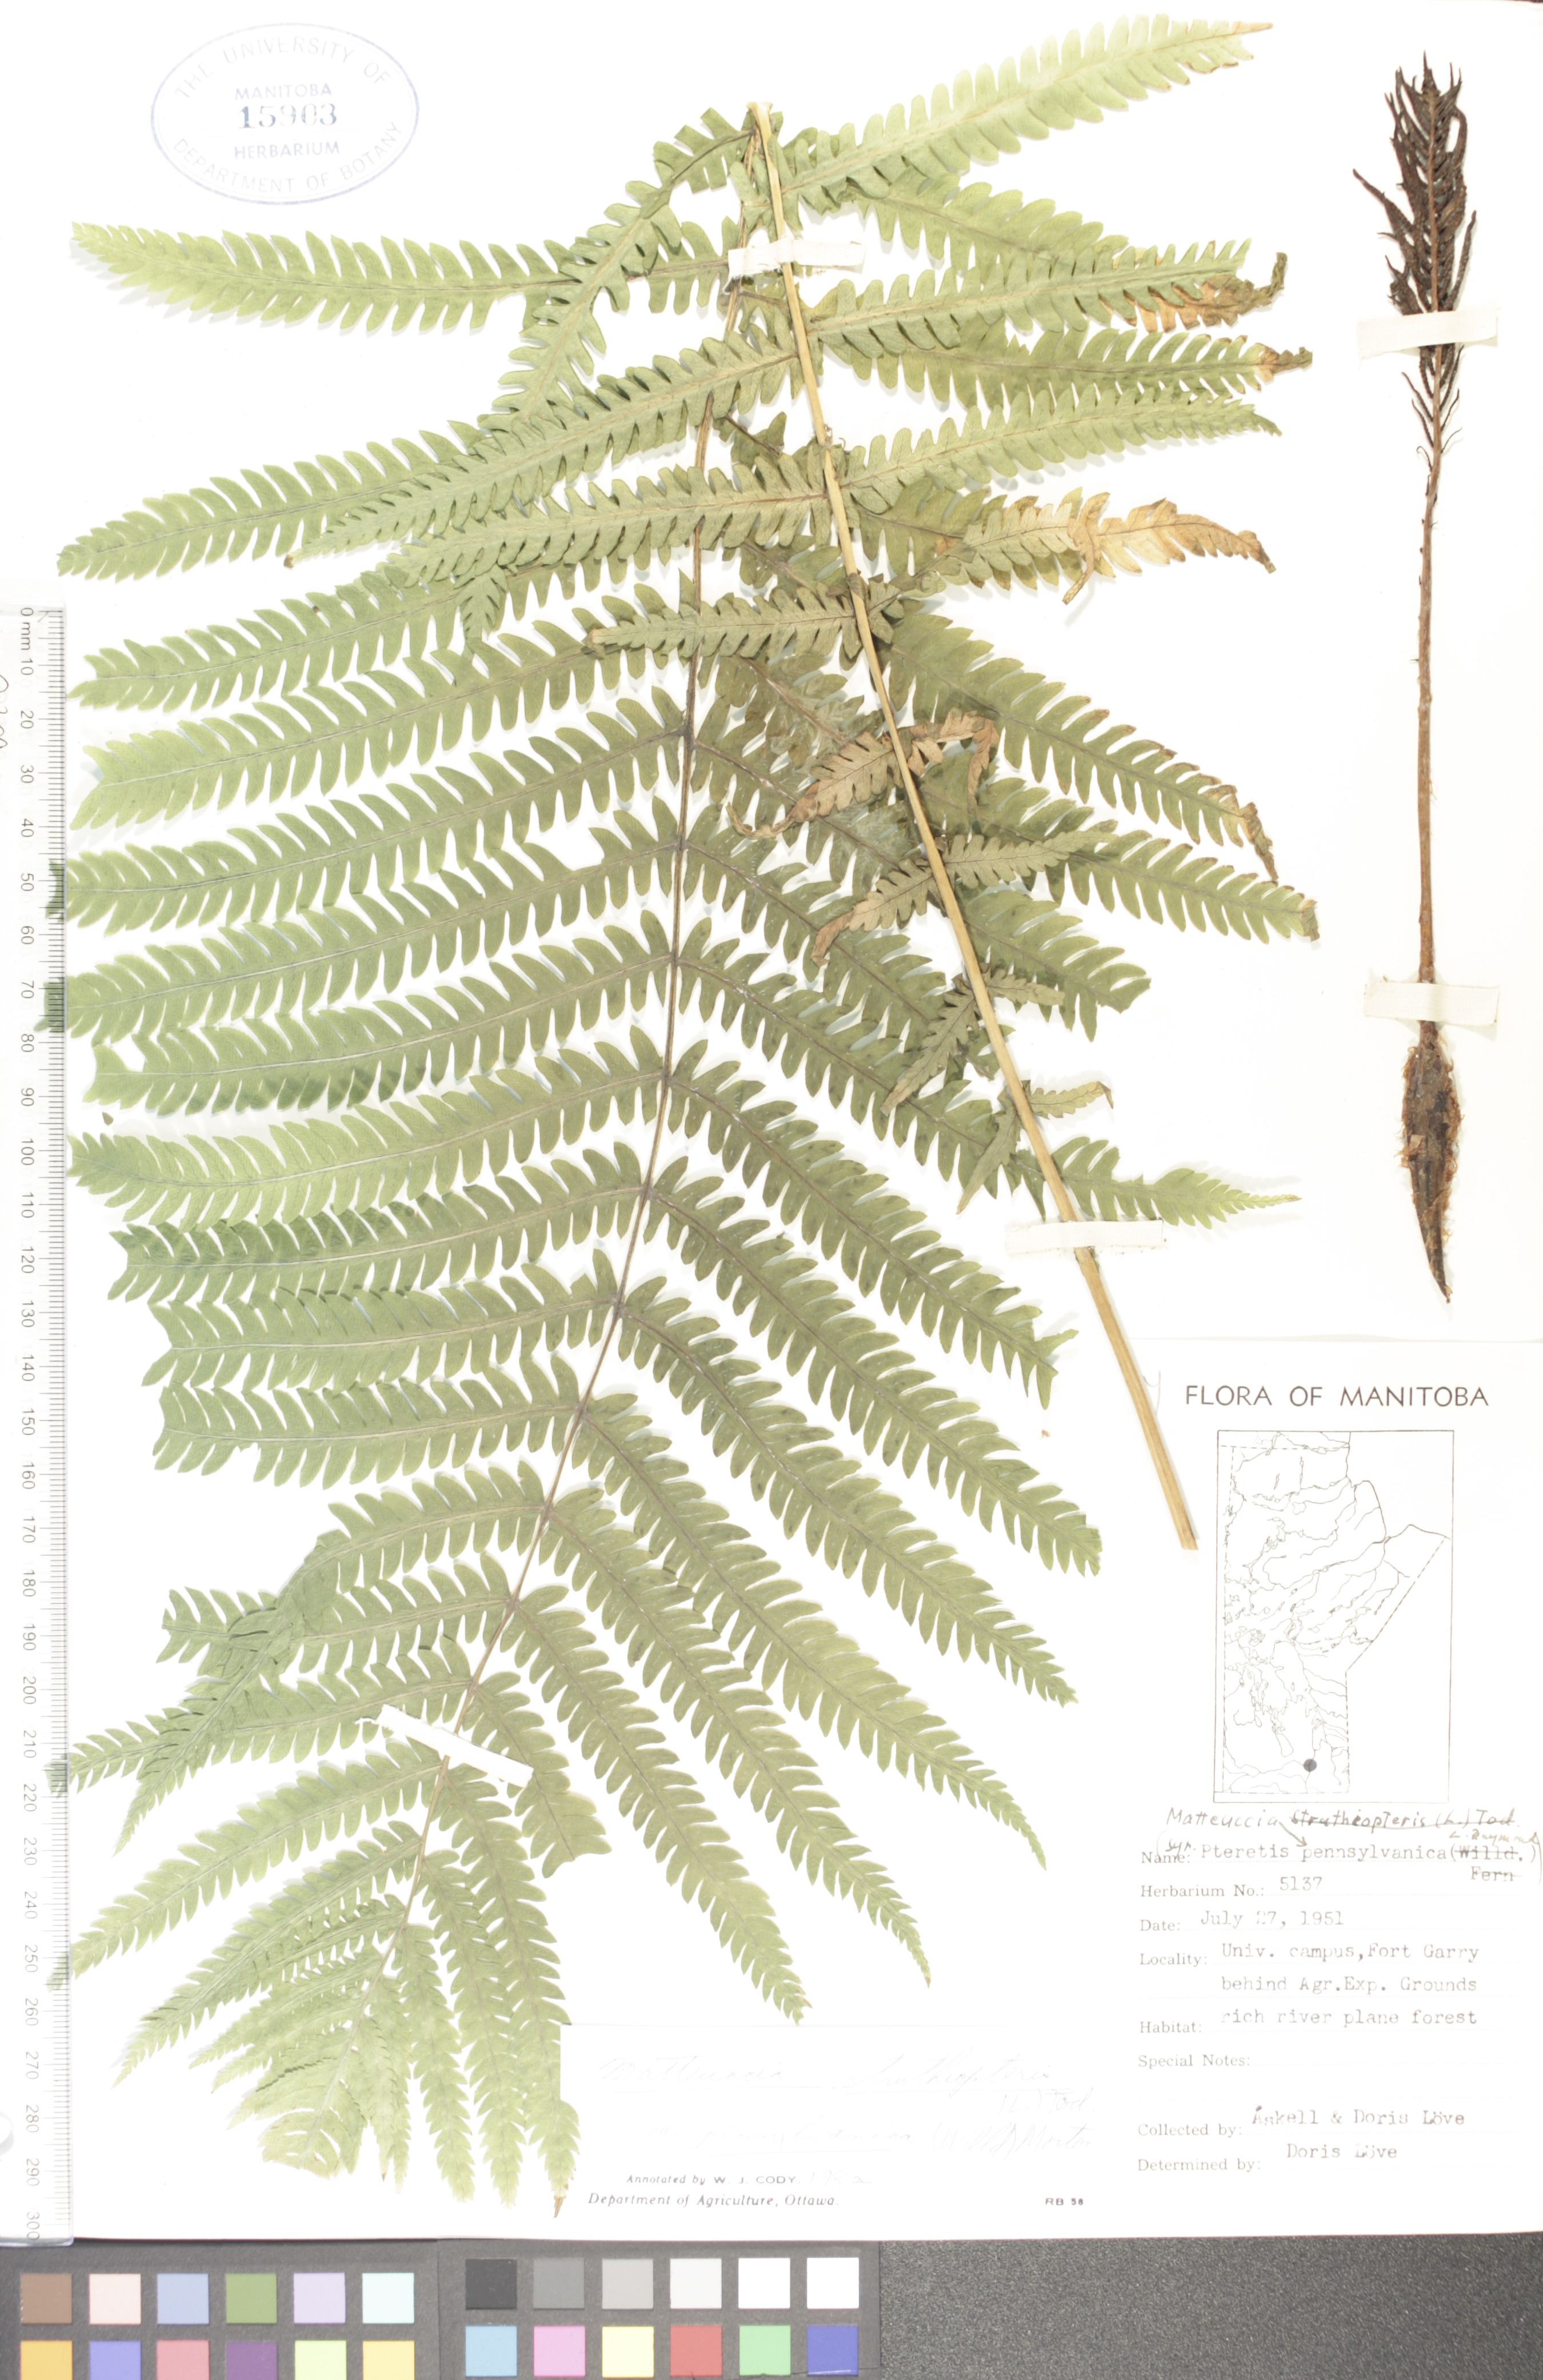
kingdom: Plantae
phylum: Tracheophyta
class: Polypodiopsida
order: Polypodiales
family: Onocleaceae
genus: Matteuccia
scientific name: Matteuccia pensylvanica
